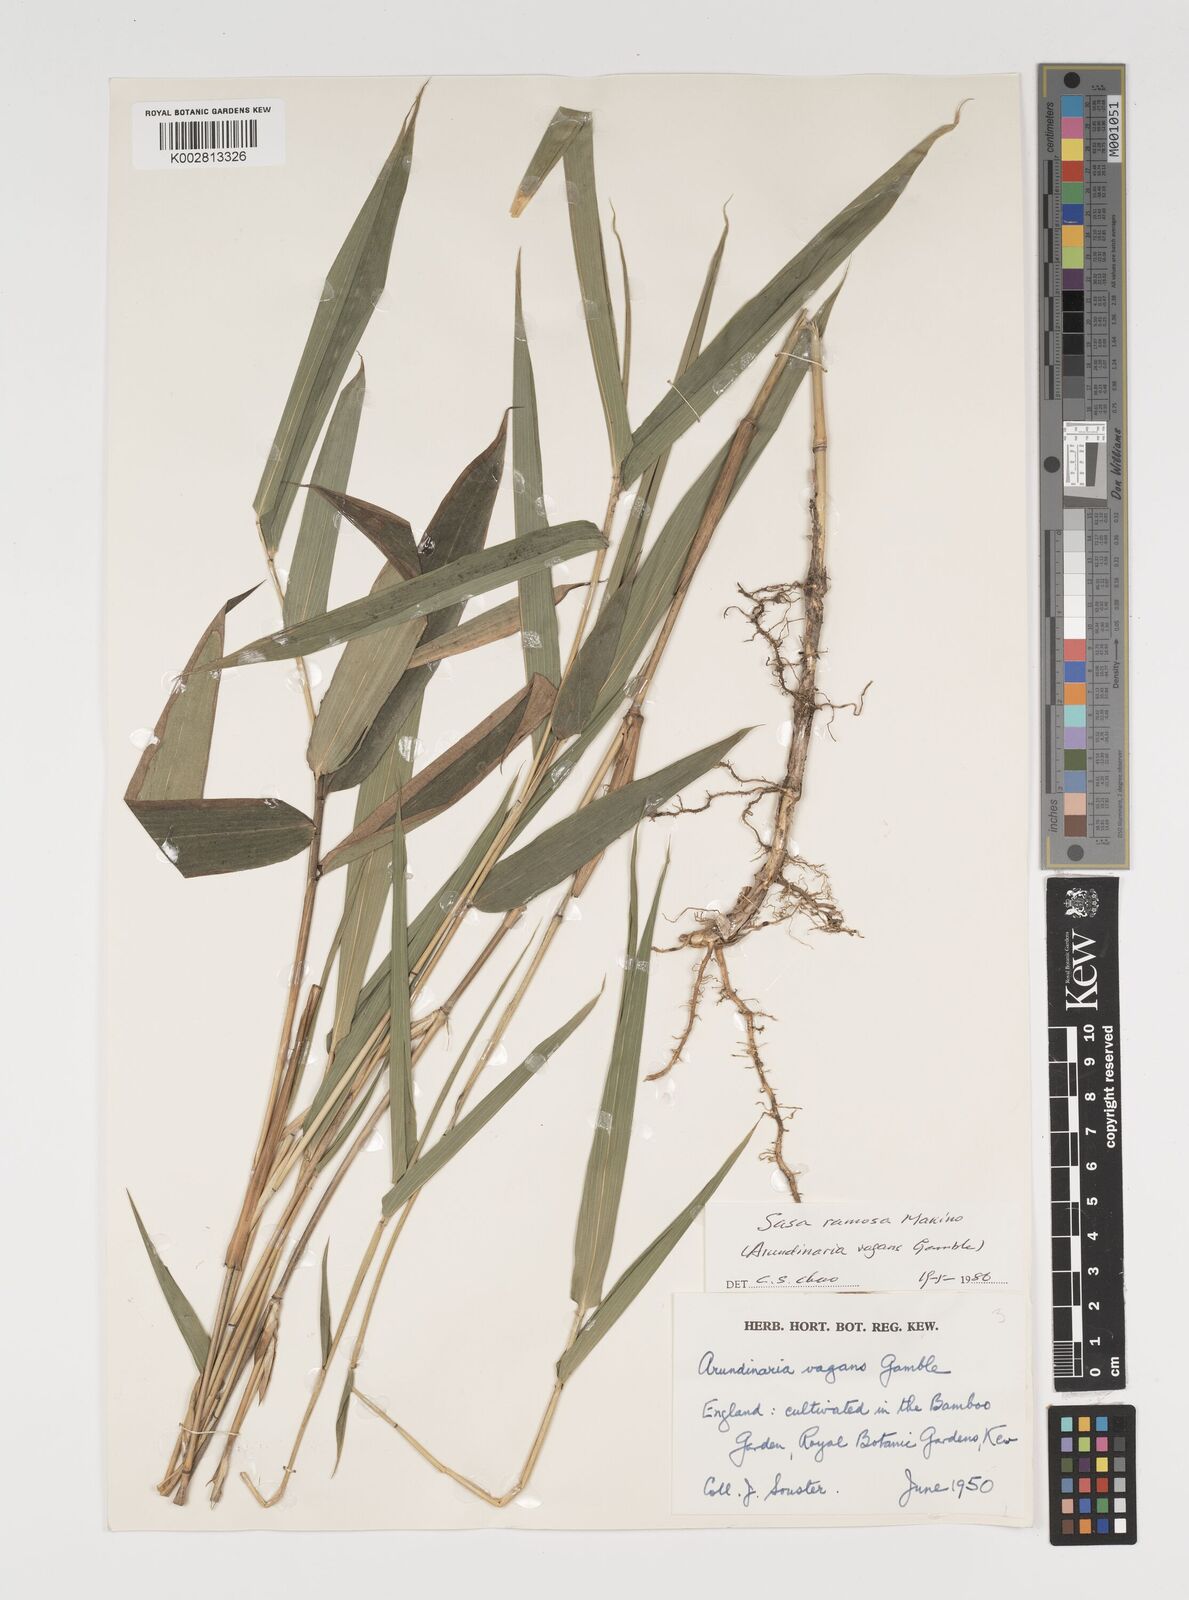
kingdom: Plantae
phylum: Tracheophyta
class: Liliopsida
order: Poales
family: Poaceae
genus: Sasaella
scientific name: Sasaella ramosa
